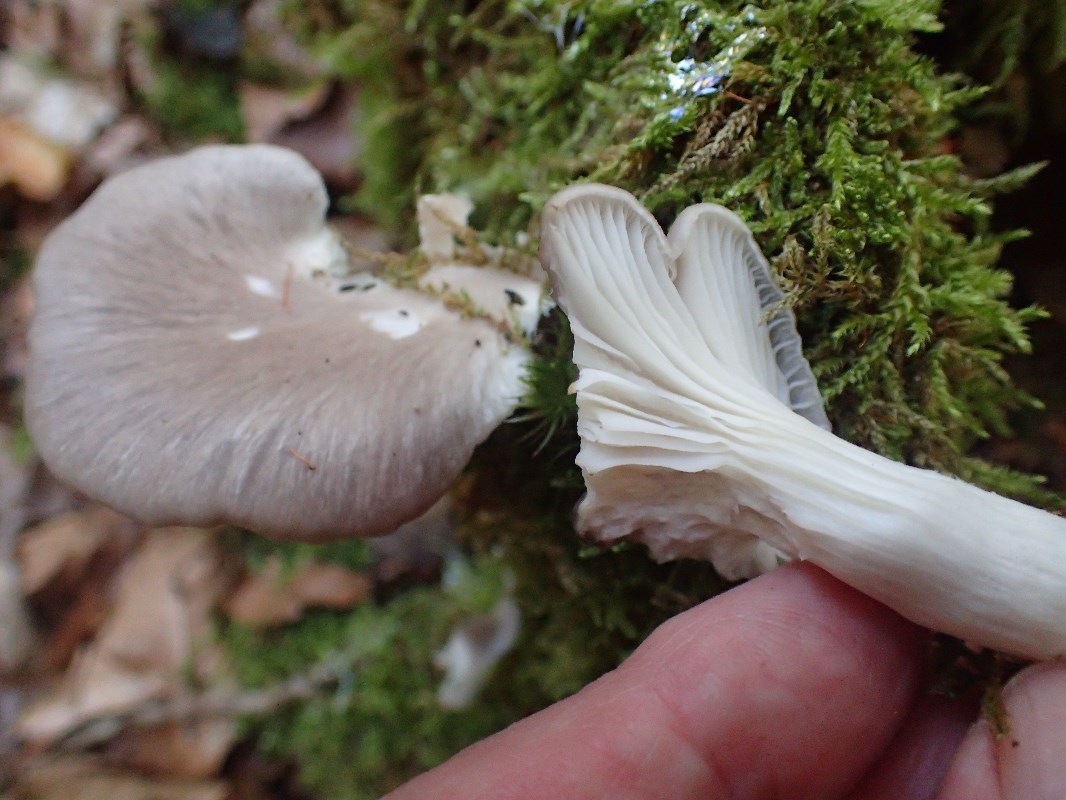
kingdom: Fungi
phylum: Basidiomycota
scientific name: Basidiomycota
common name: sommer-østershat
